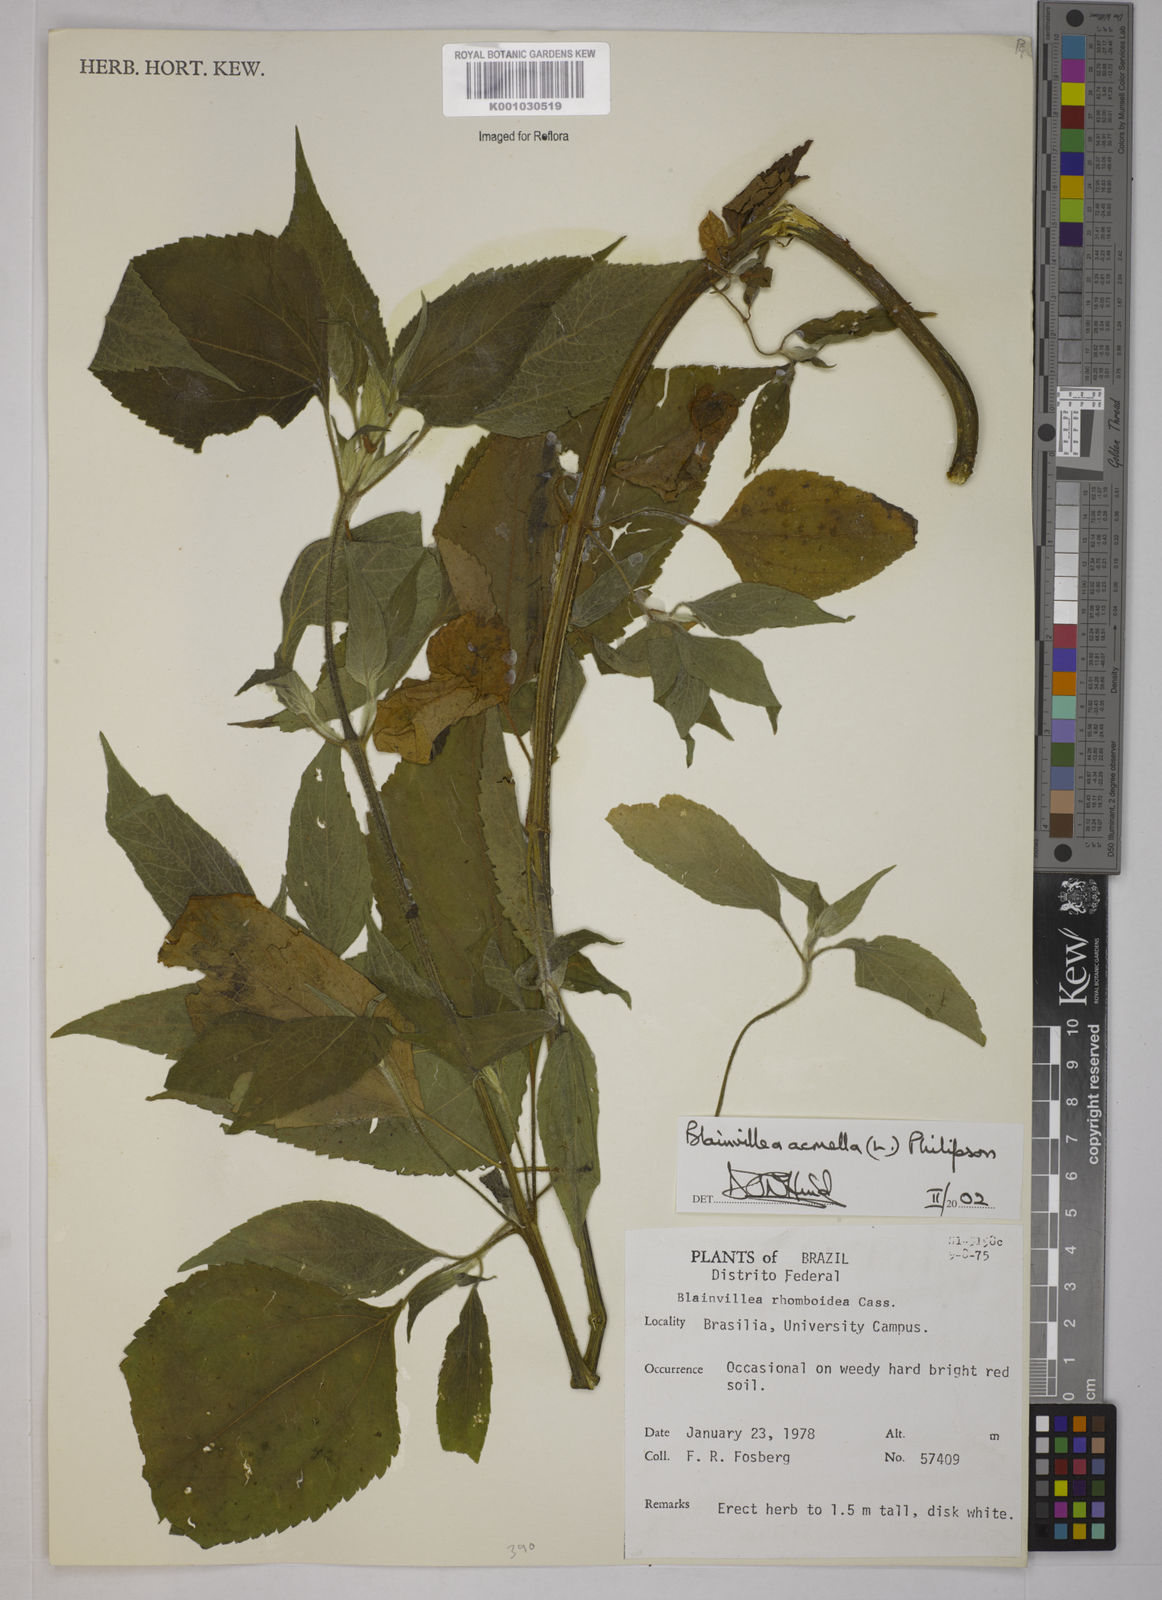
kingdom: Plantae
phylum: Tracheophyta
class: Magnoliopsida
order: Asterales
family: Asteraceae
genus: Blainvillea
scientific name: Blainvillea acmella
